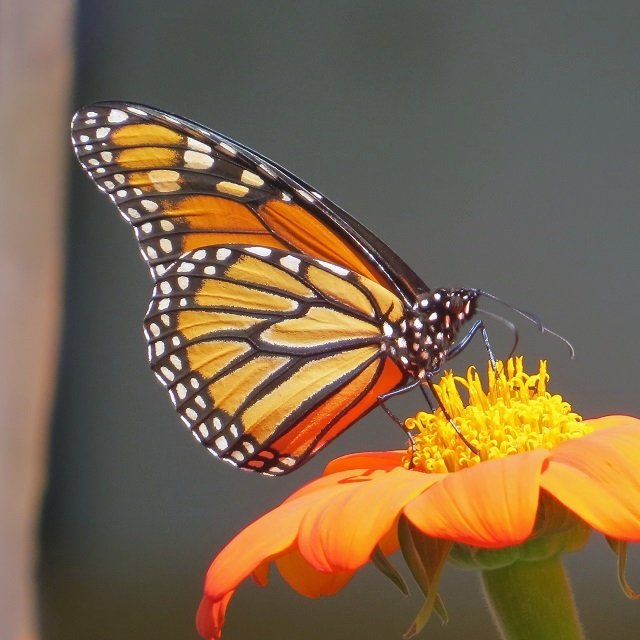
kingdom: Animalia
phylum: Arthropoda
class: Insecta
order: Lepidoptera
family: Nymphalidae
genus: Danaus
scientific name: Danaus plexippus
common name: Monarch
